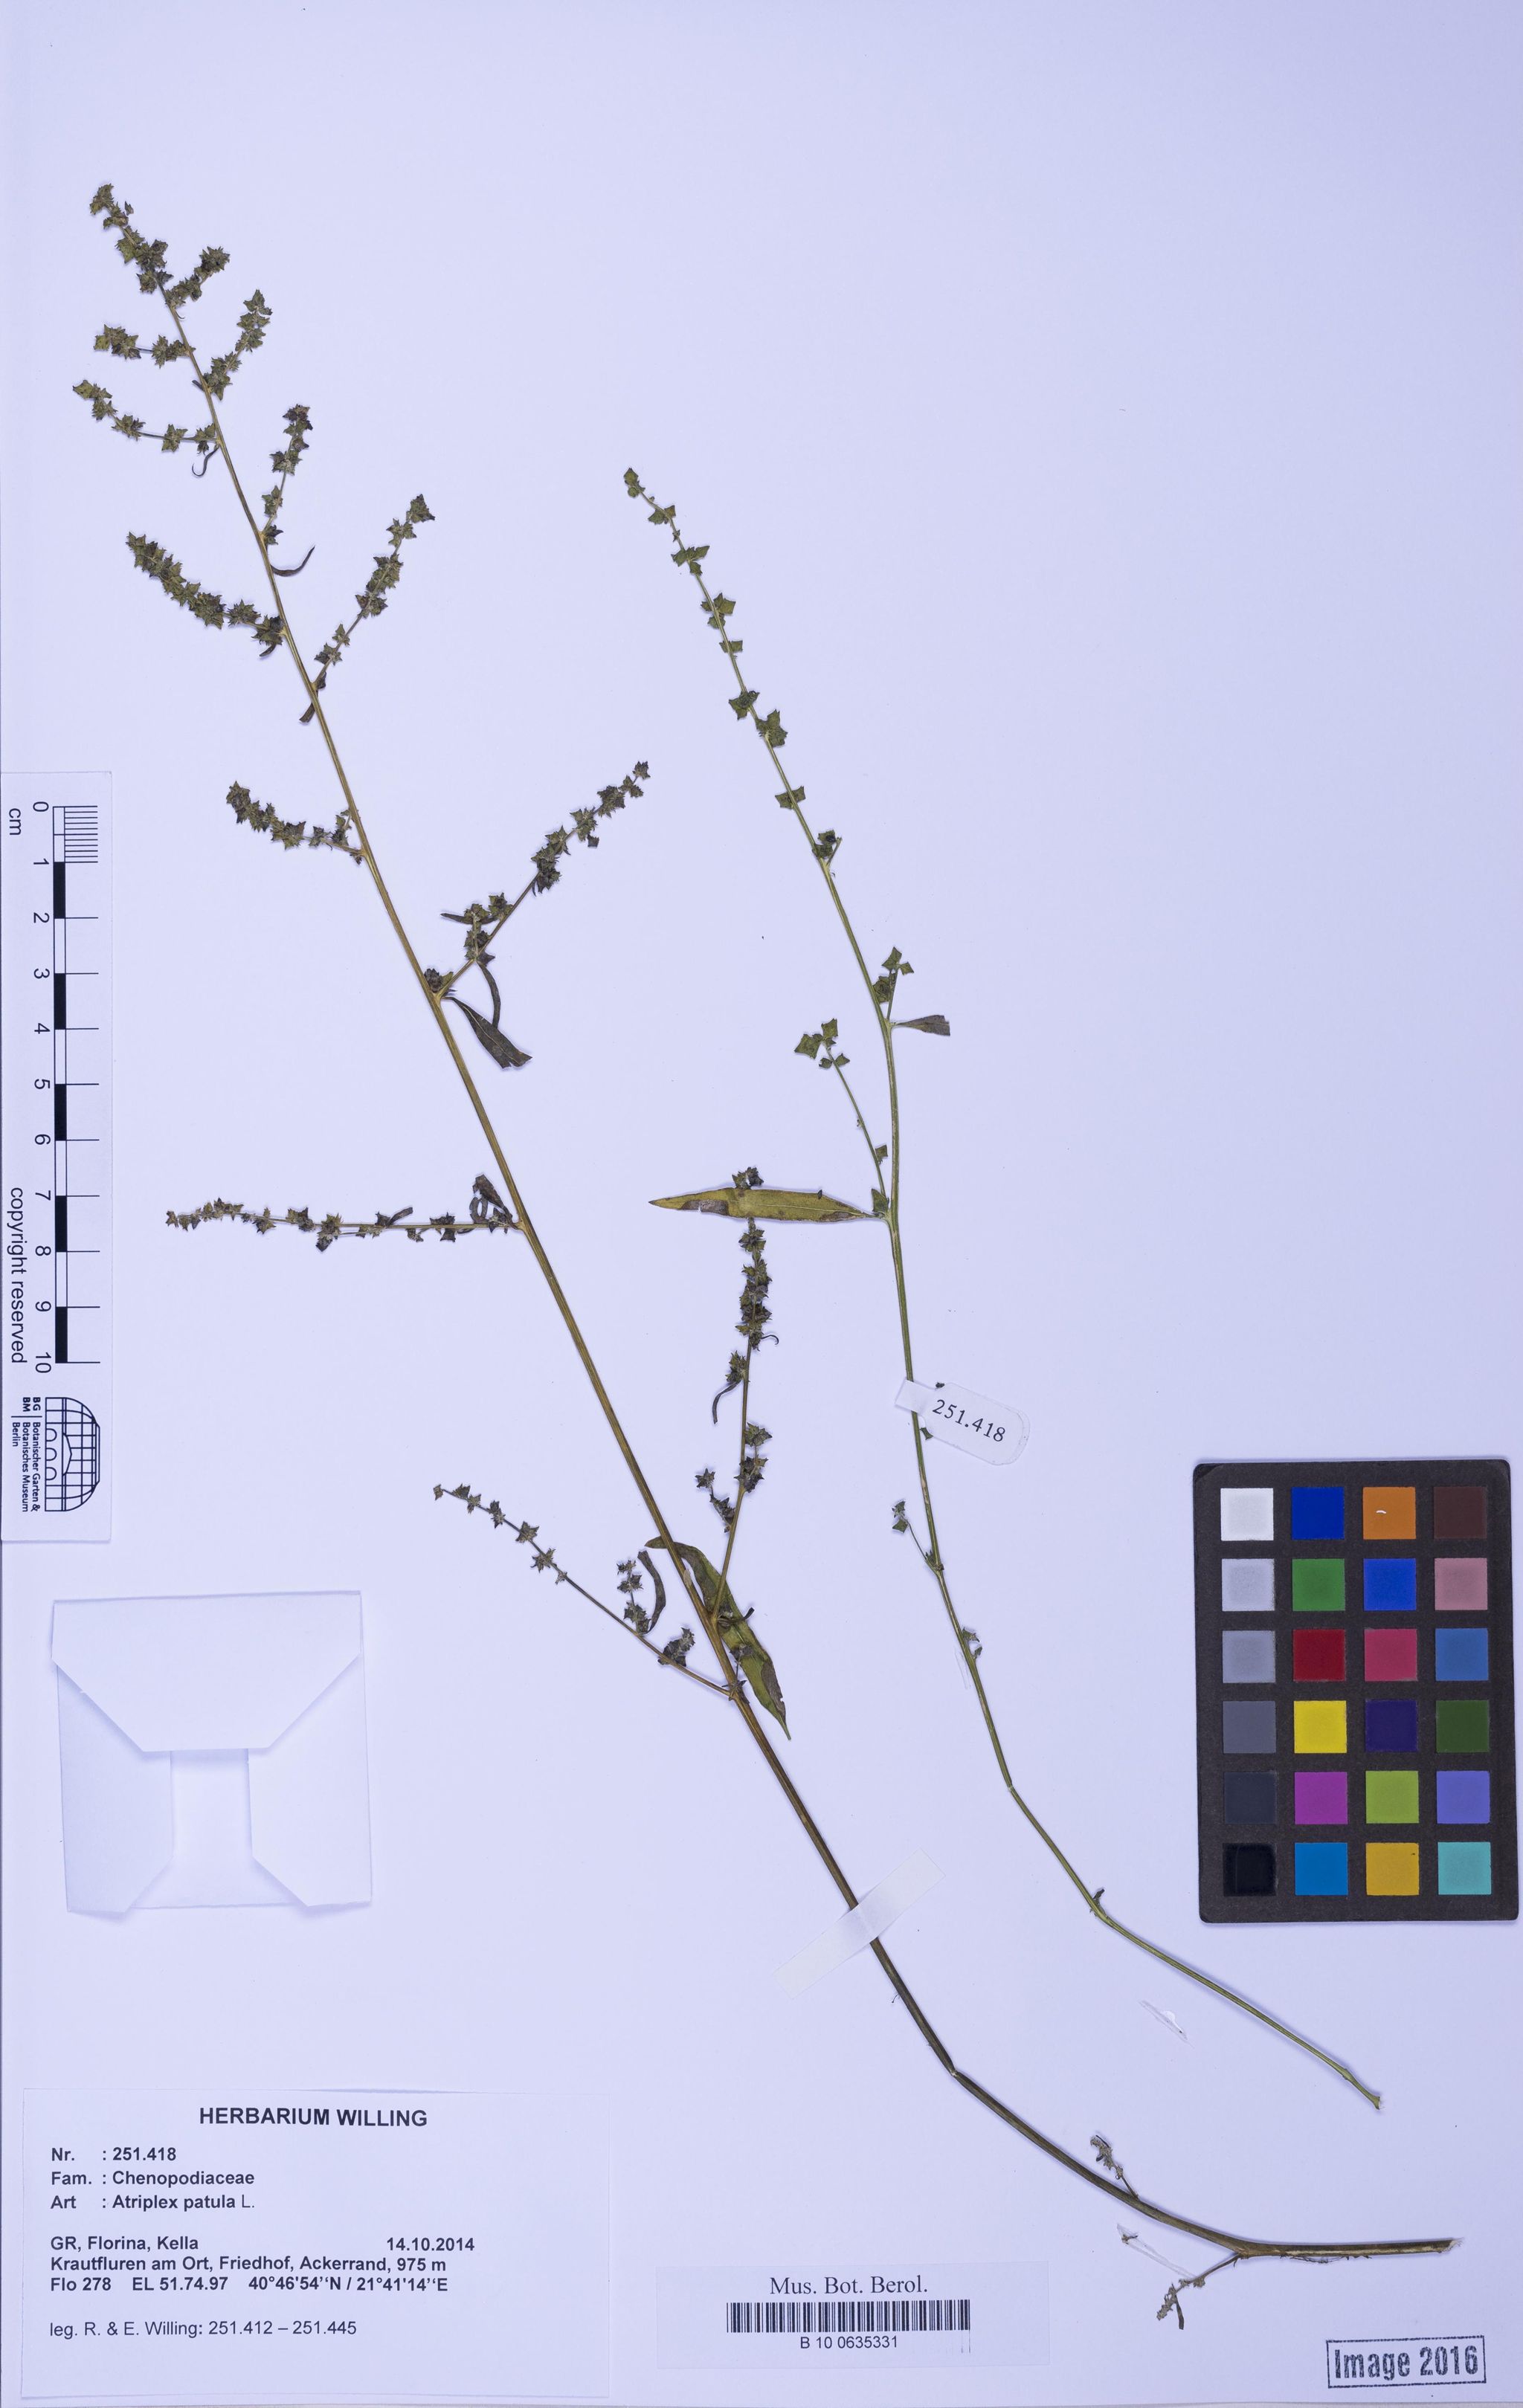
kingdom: Plantae
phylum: Tracheophyta
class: Magnoliopsida
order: Caryophyllales
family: Amaranthaceae
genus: Atriplex
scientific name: Atriplex patula
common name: Common orache
